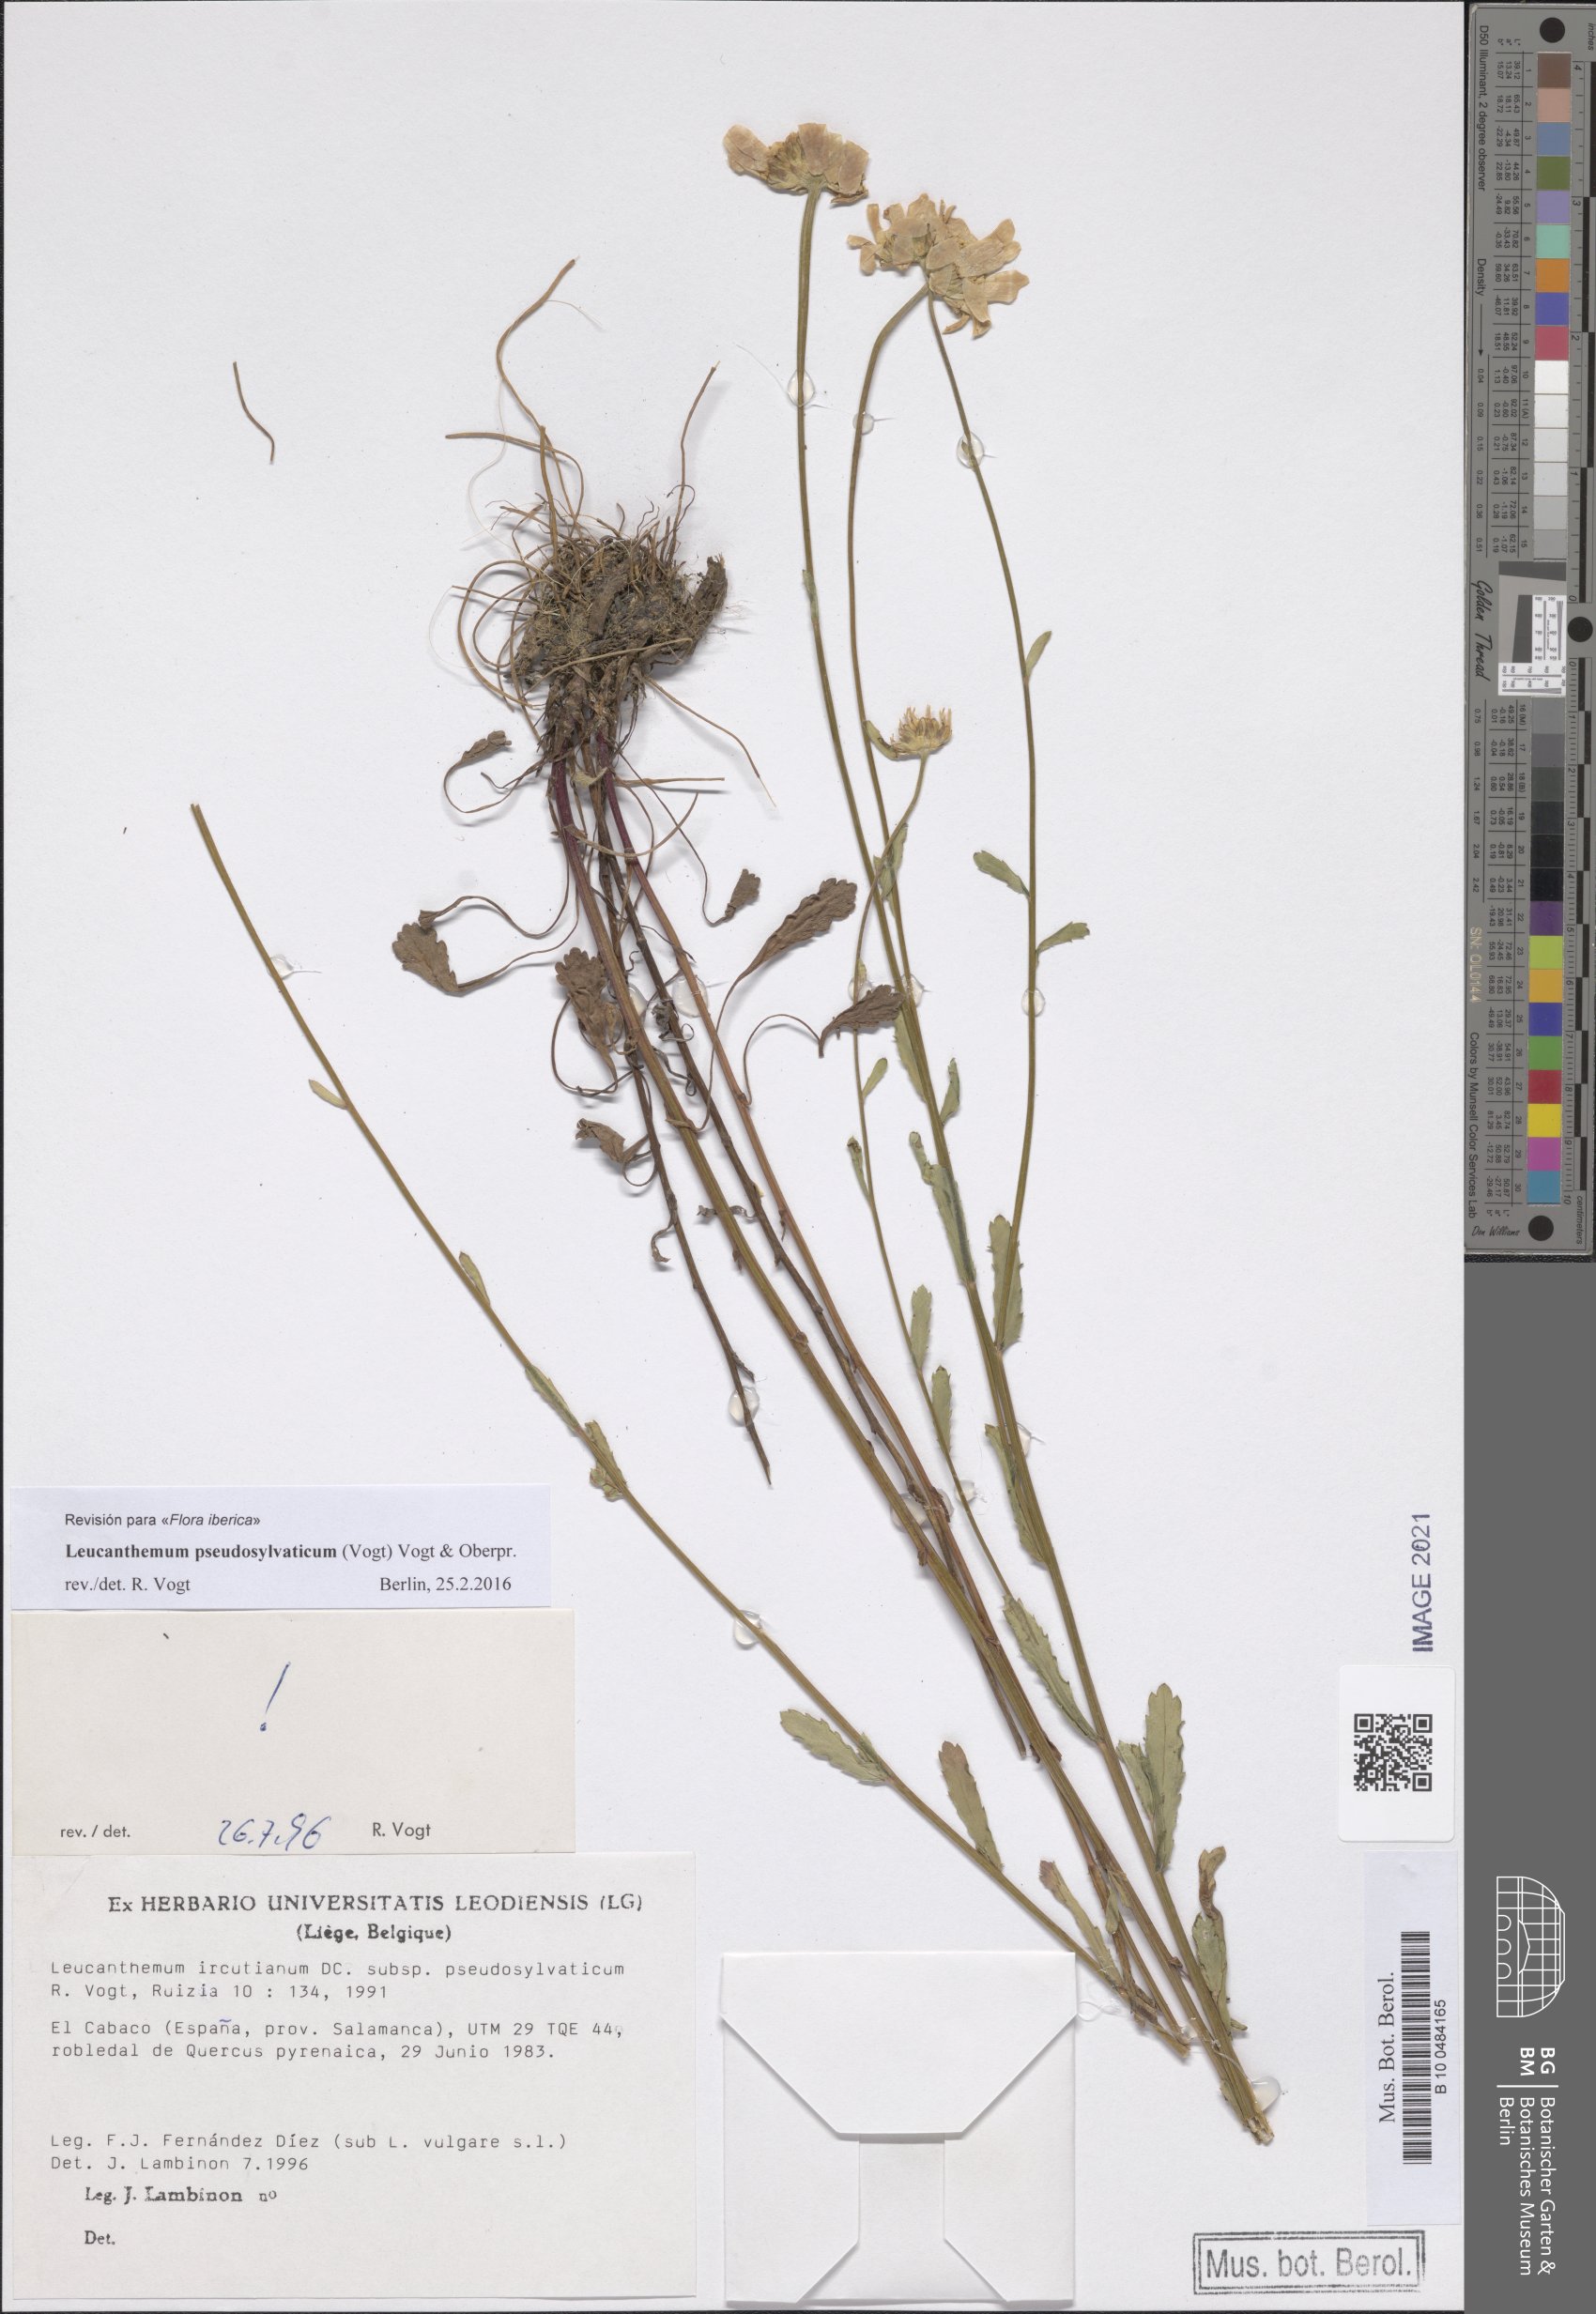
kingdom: Plantae
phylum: Tracheophyta
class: Magnoliopsida
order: Asterales
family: Asteraceae
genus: Leucanthemum
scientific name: Leucanthemum pseudosylvaticum
